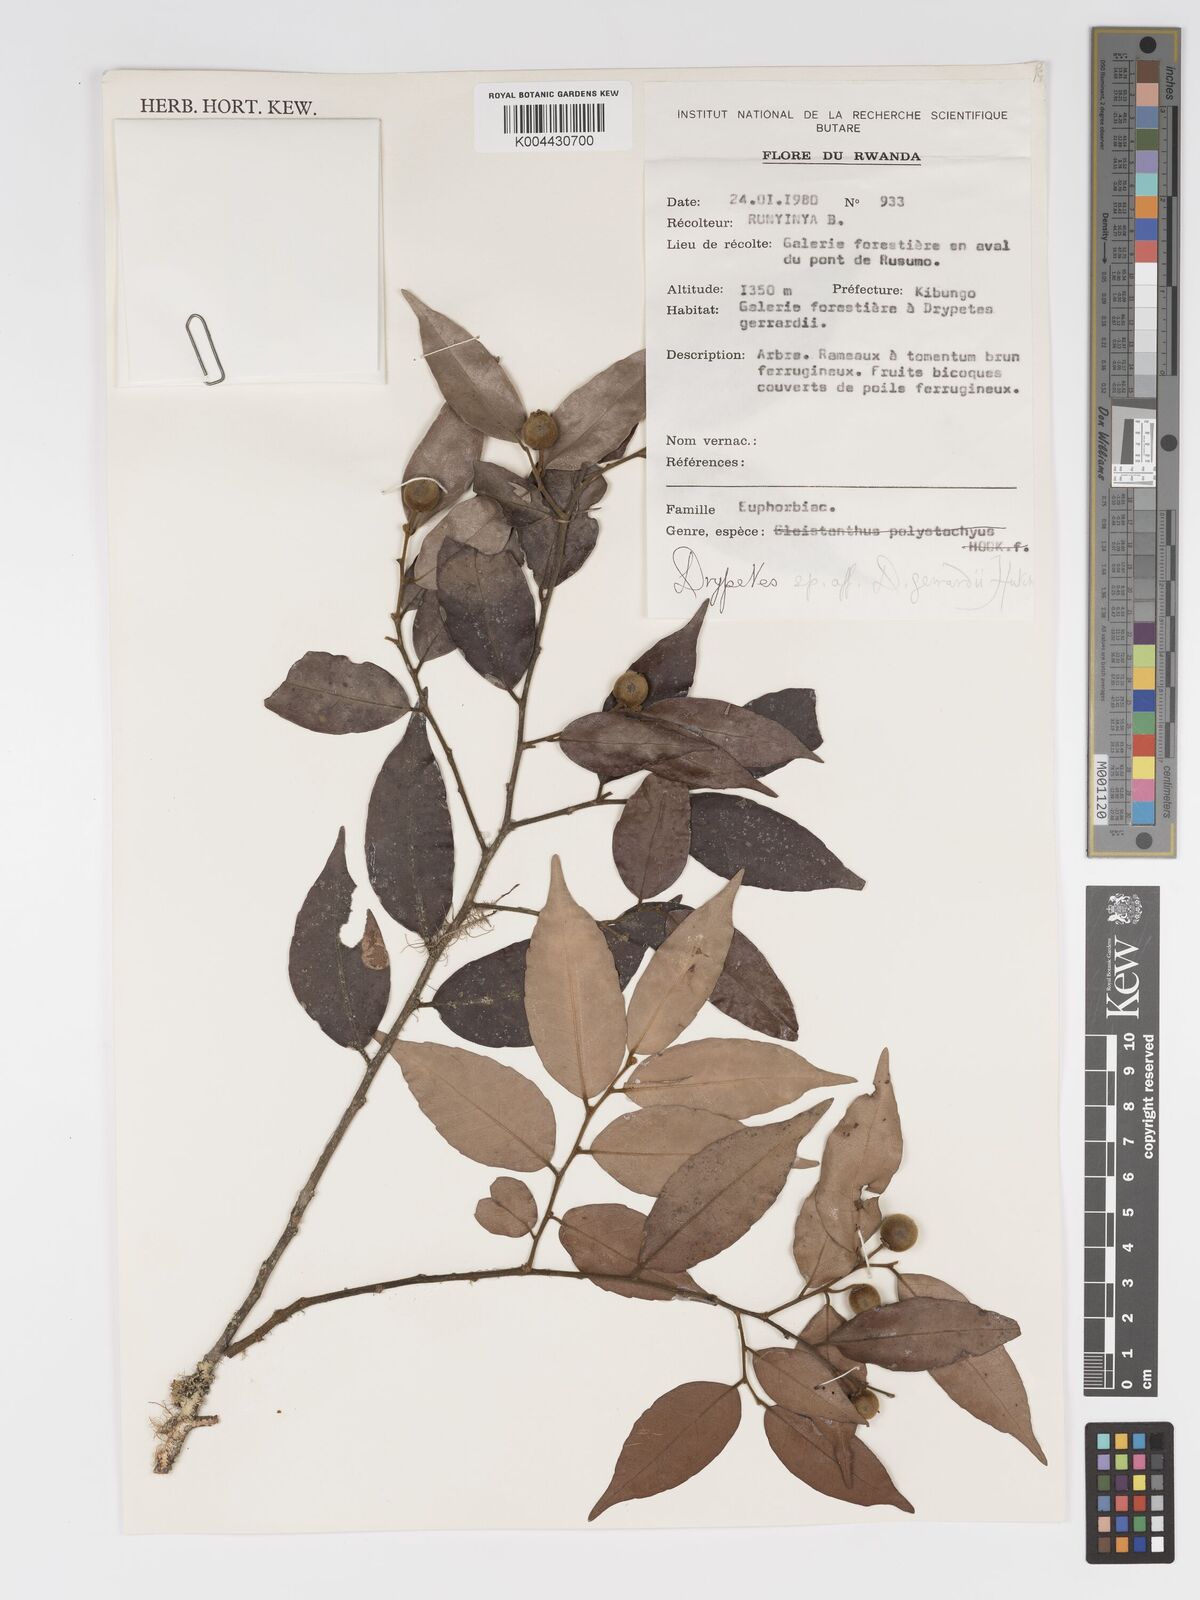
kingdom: Plantae
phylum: Tracheophyta
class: Magnoliopsida
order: Malpighiales
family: Putranjivaceae
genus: Drypetes
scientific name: Drypetes gerrardii
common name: Forest ironplum
